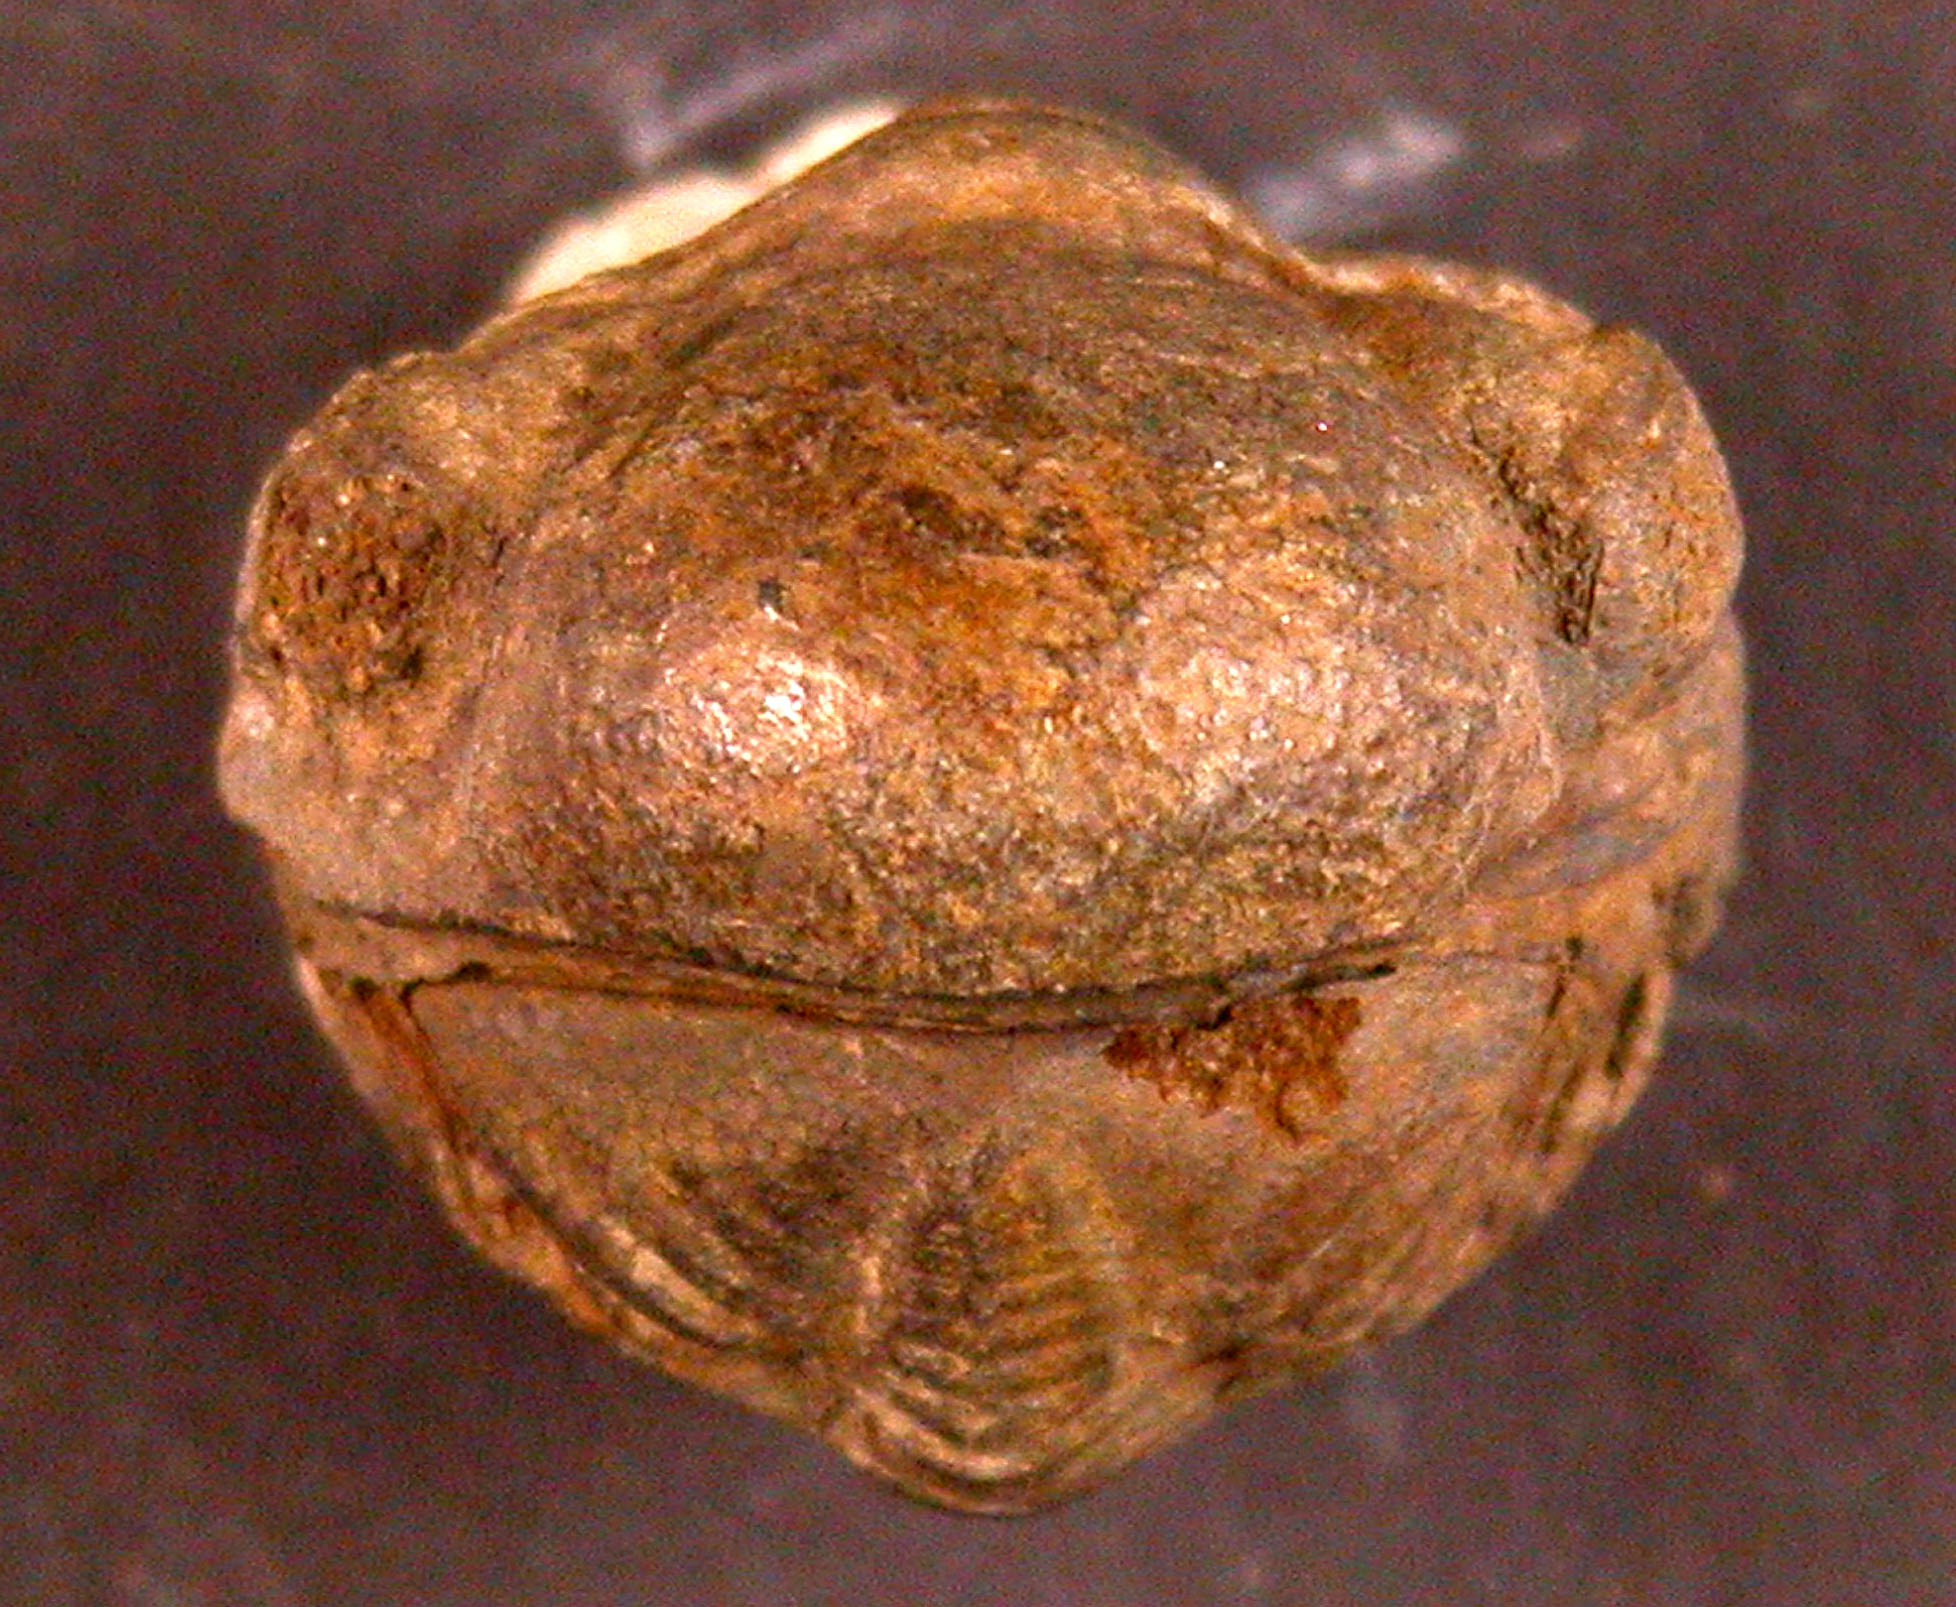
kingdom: Animalia
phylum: Arthropoda
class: Trilobita
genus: Arduennops
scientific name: Arduennops
